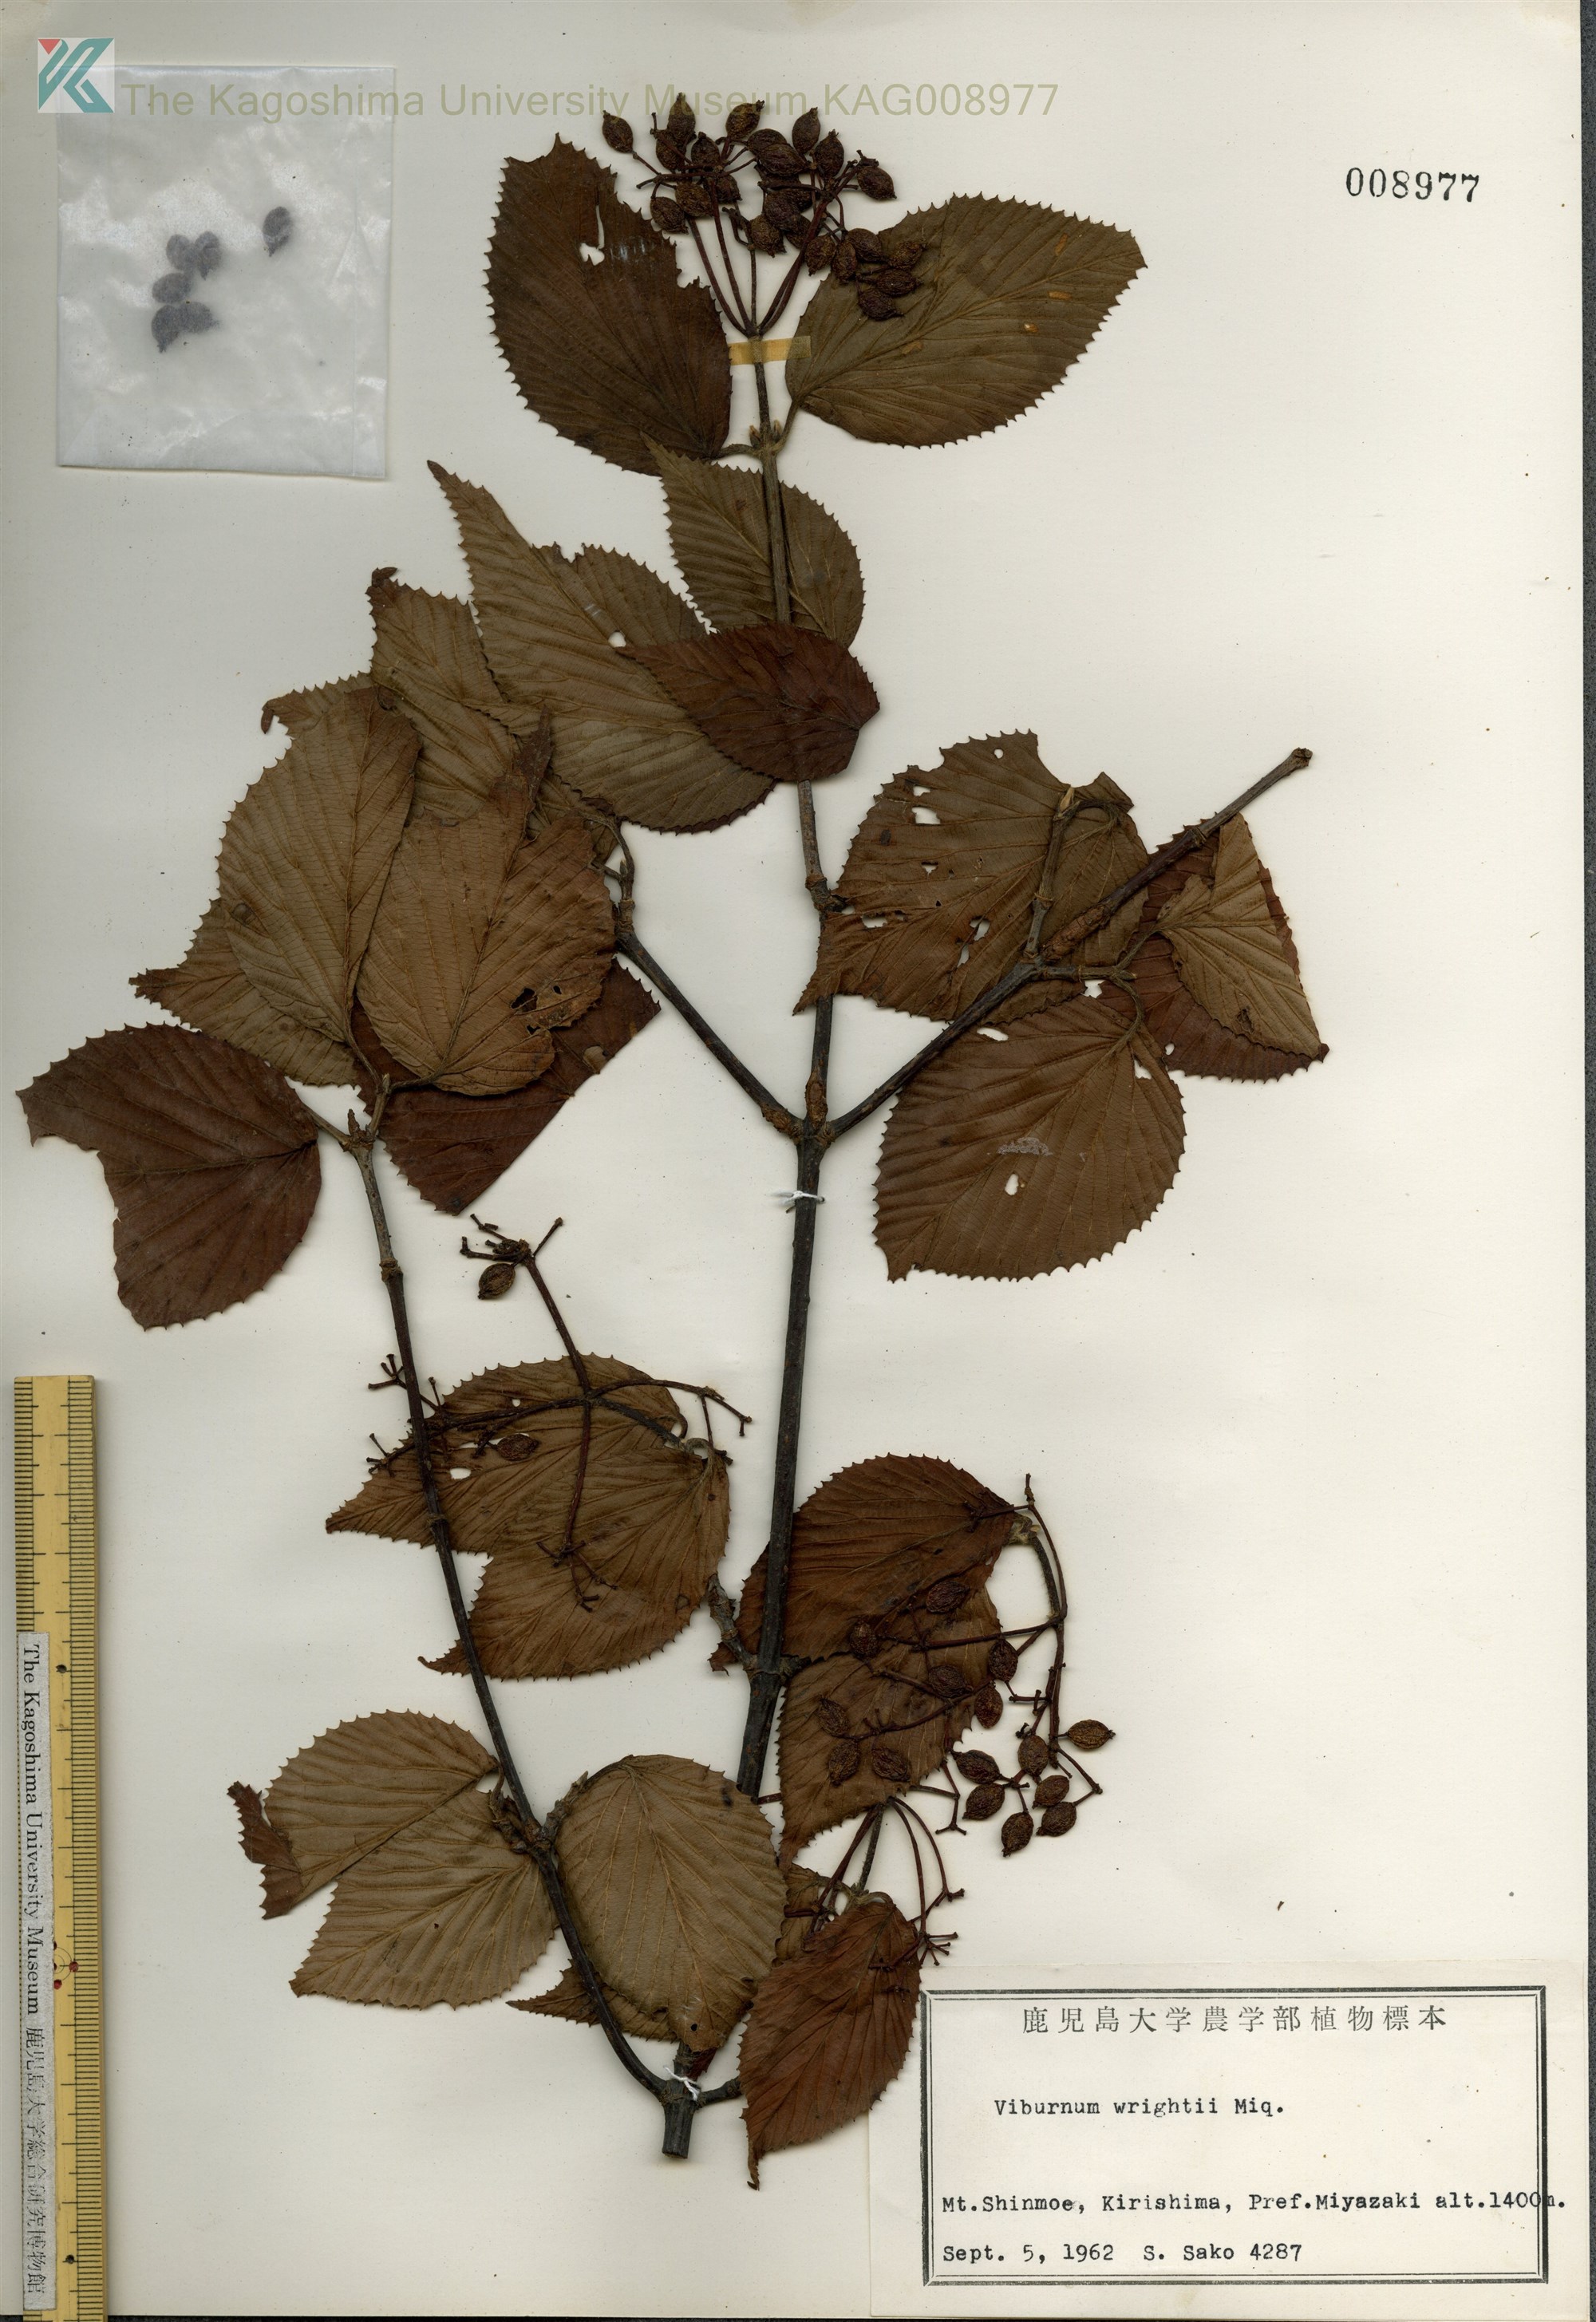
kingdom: Plantae
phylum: Tracheophyta
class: Magnoliopsida
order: Dipsacales
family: Viburnaceae
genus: Viburnum
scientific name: Viburnum wrightii
